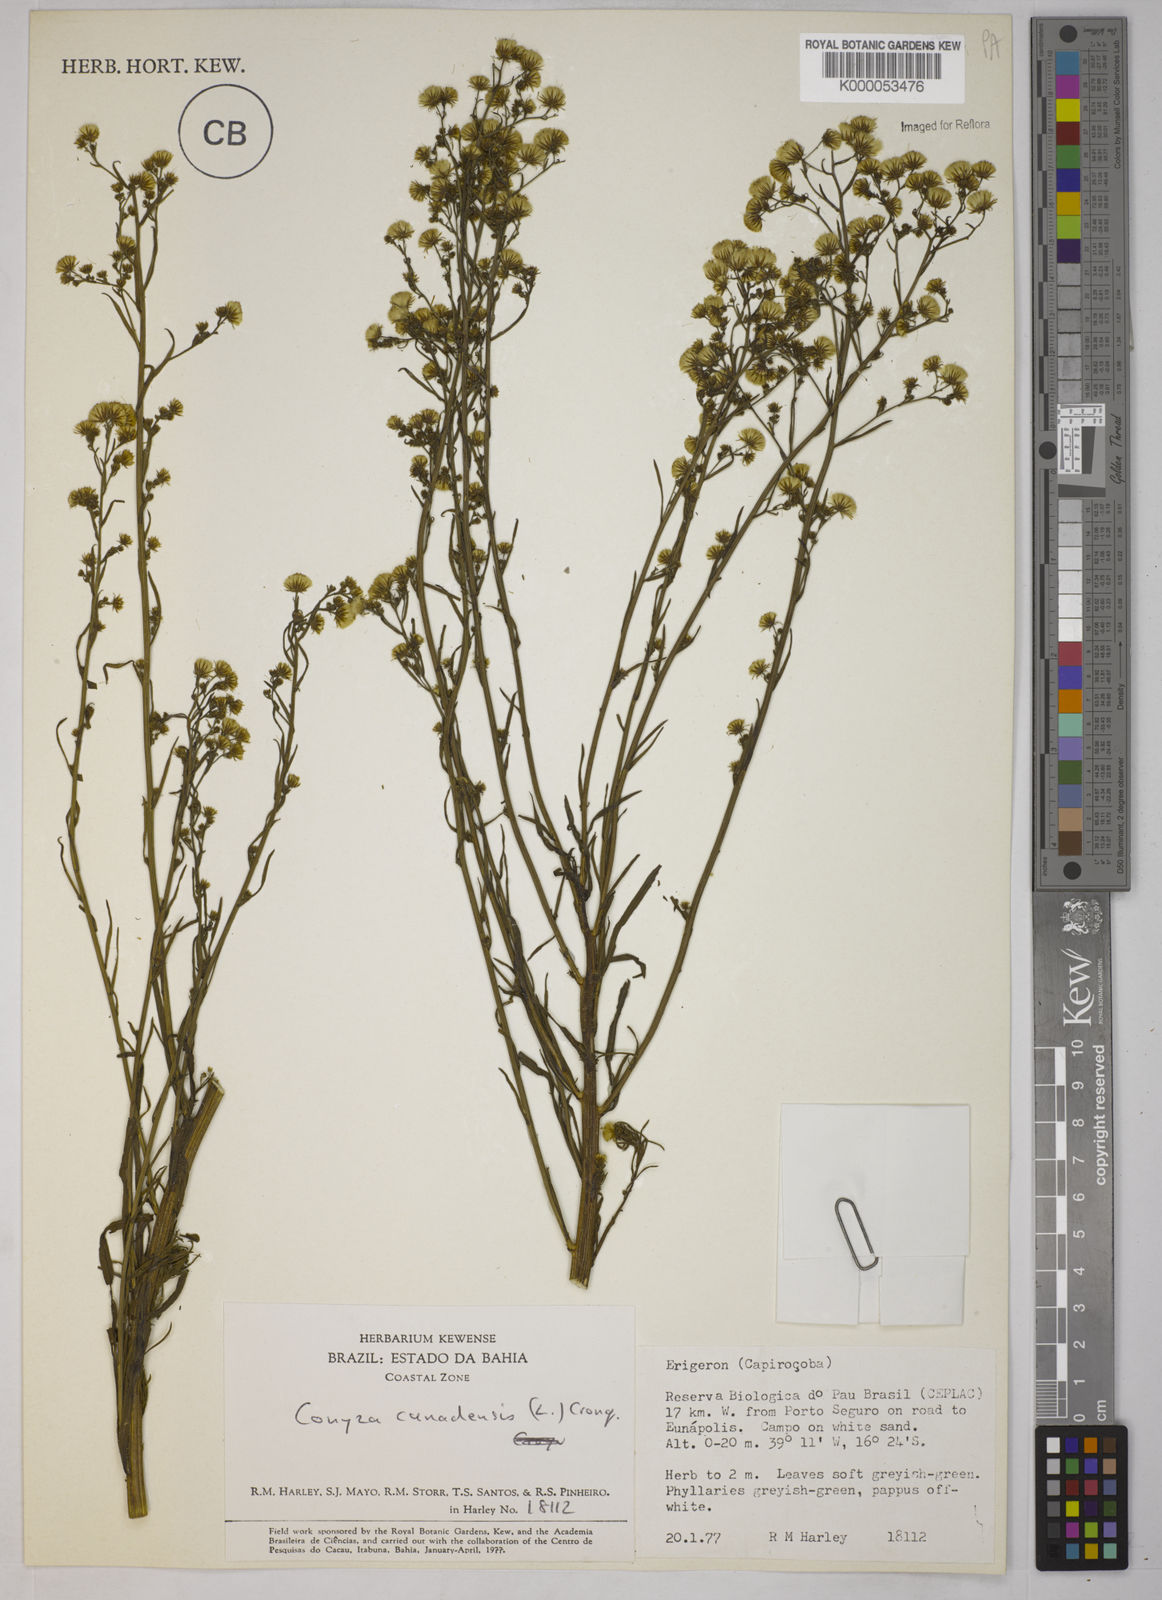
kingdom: Plantae
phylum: Tracheophyta
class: Magnoliopsida
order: Asterales
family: Asteraceae
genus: Erigeron
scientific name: Erigeron canadensis
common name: Canadian fleabane
